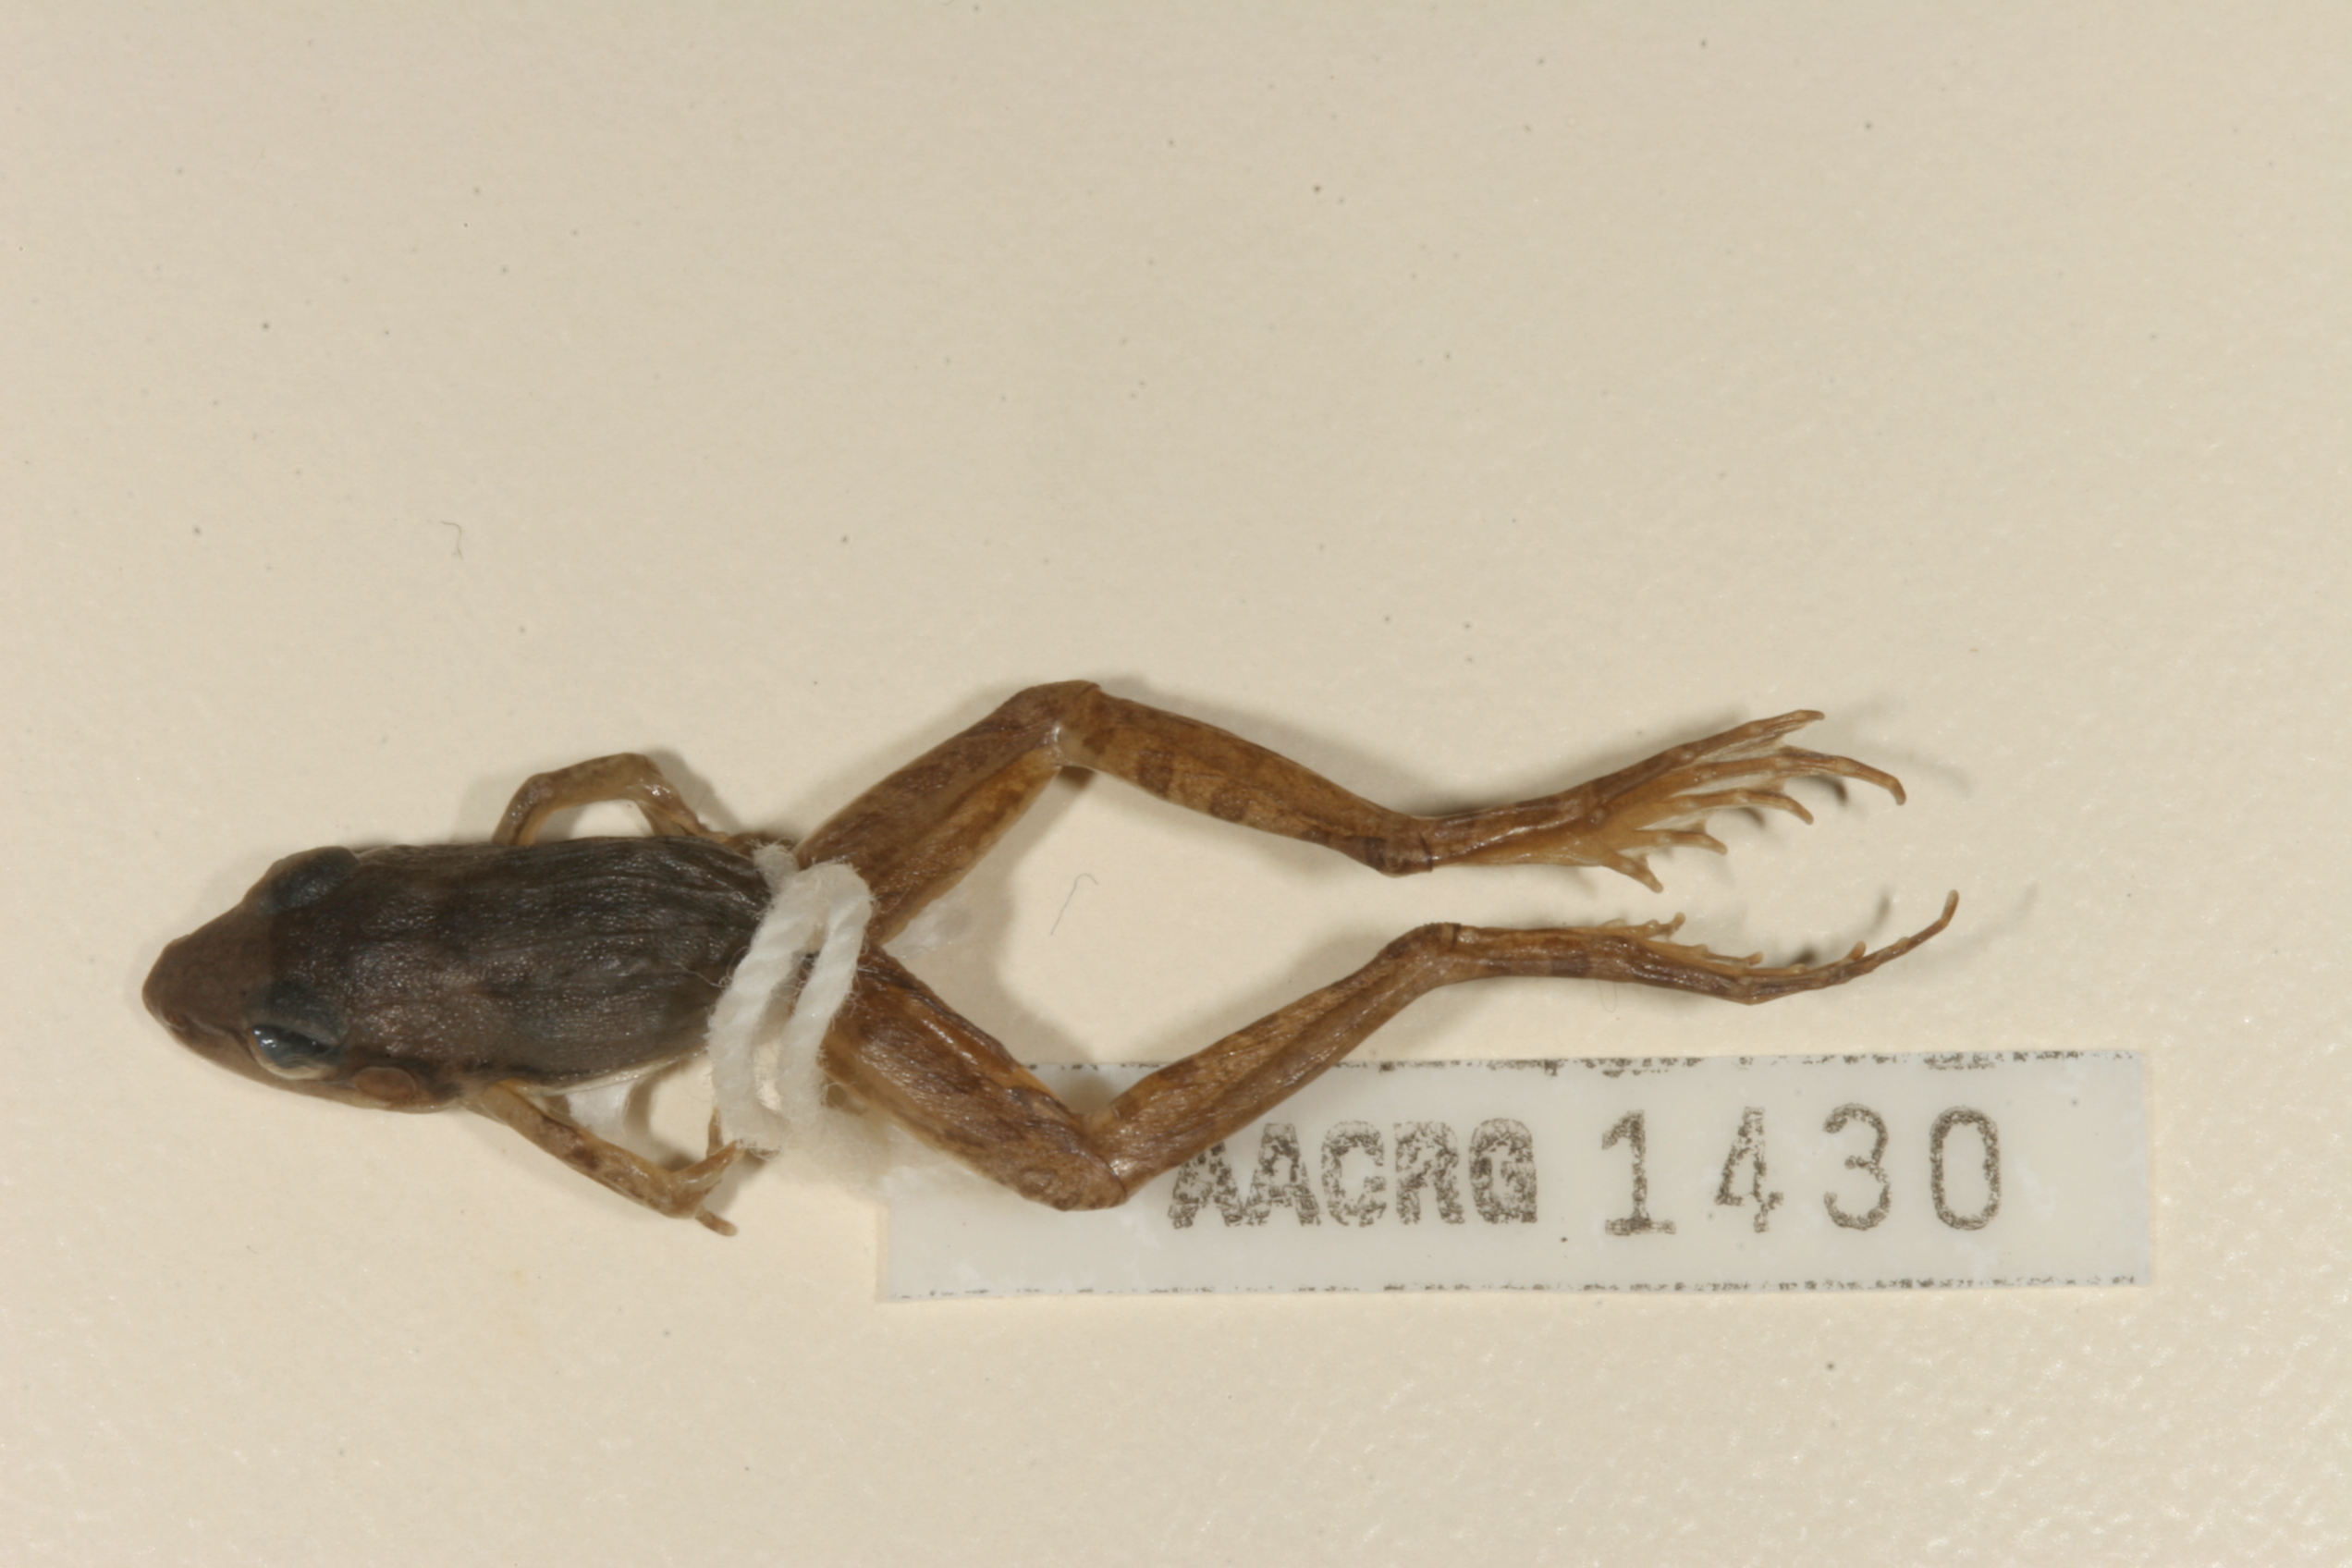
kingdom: Animalia
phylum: Chordata
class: Amphibia
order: Anura
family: Ptychadenidae
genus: Ptychadena
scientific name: Ptychadena anchietae
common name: Anchieta's ridged frog
